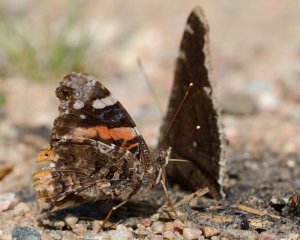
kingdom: Animalia
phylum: Arthropoda
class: Insecta
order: Lepidoptera
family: Nymphalidae
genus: Nymphalis
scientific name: Nymphalis antiopa
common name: Mourning Cloak
